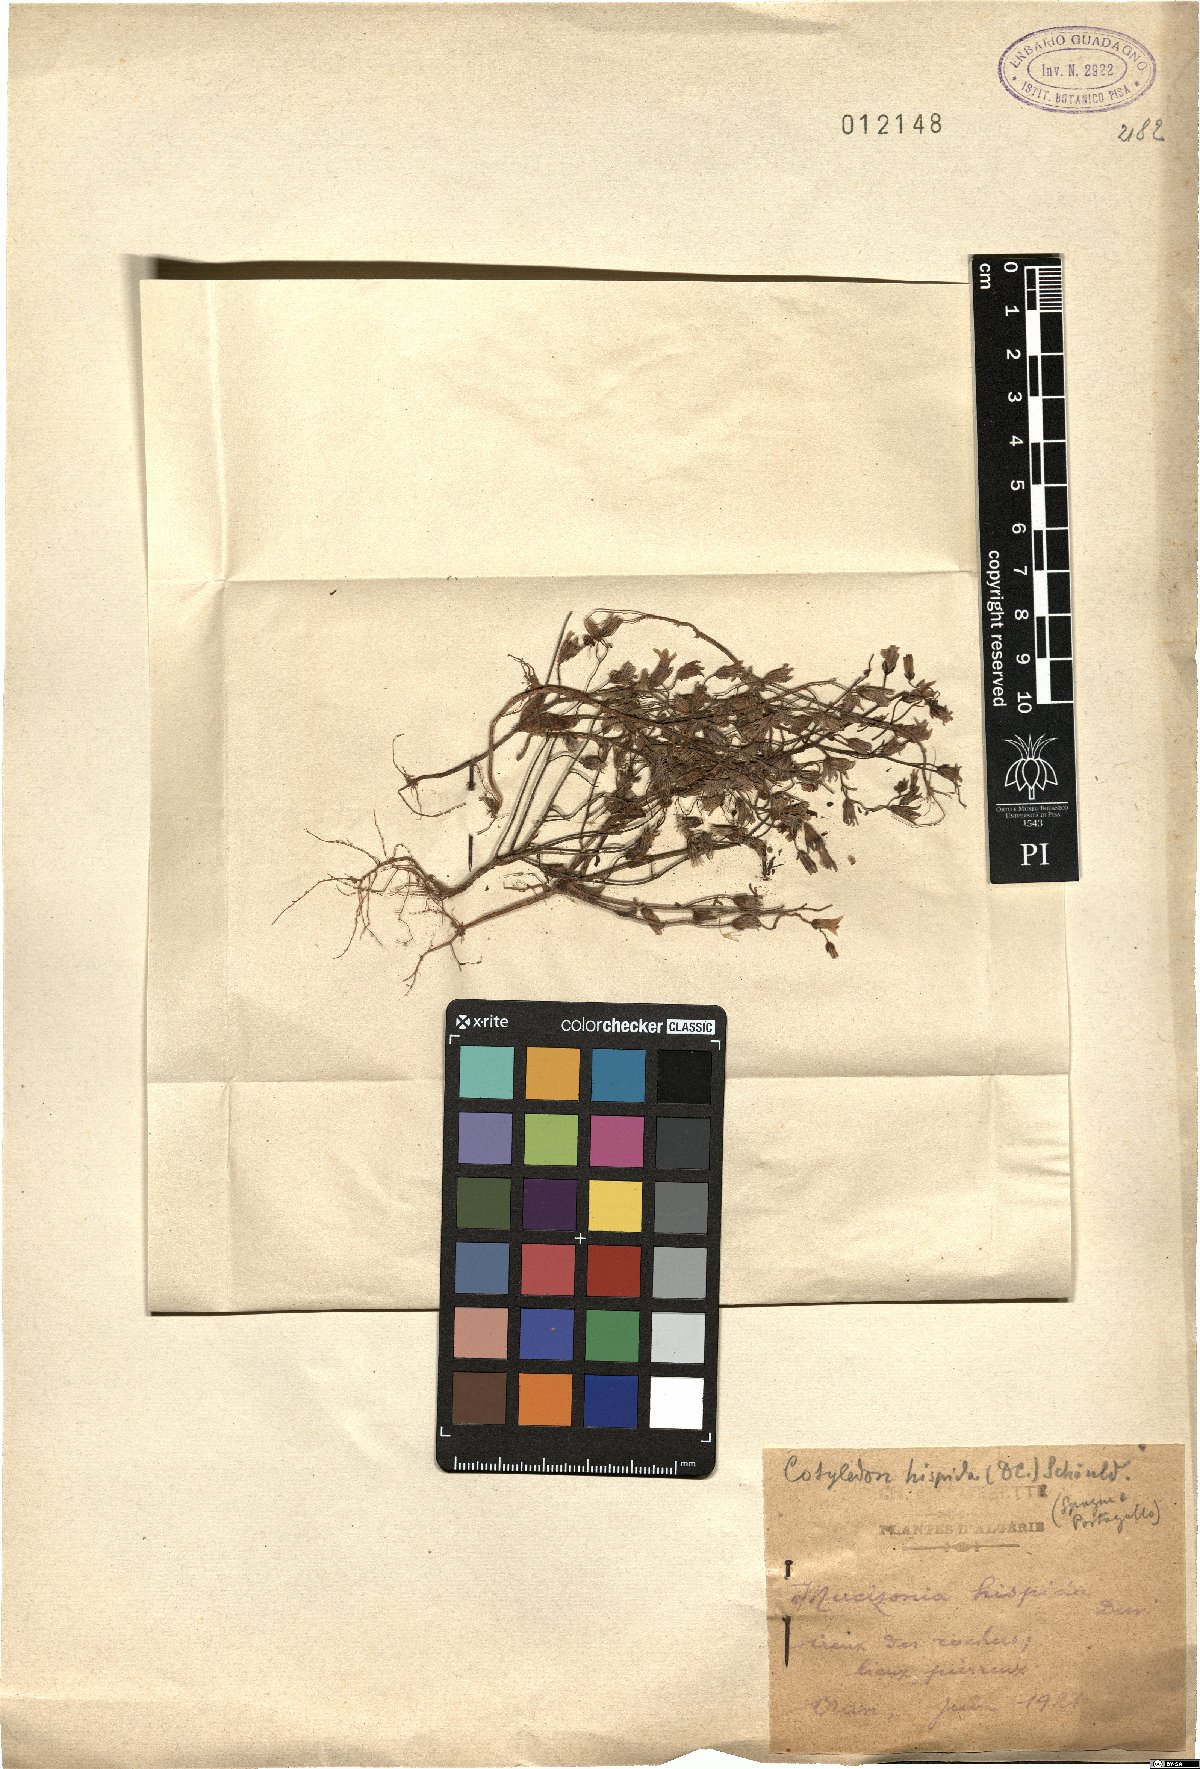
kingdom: Plantae
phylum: Tracheophyta
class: Magnoliopsida
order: Saxifragales
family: Crassulaceae
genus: Sedum
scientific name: Sedum mucizonia
